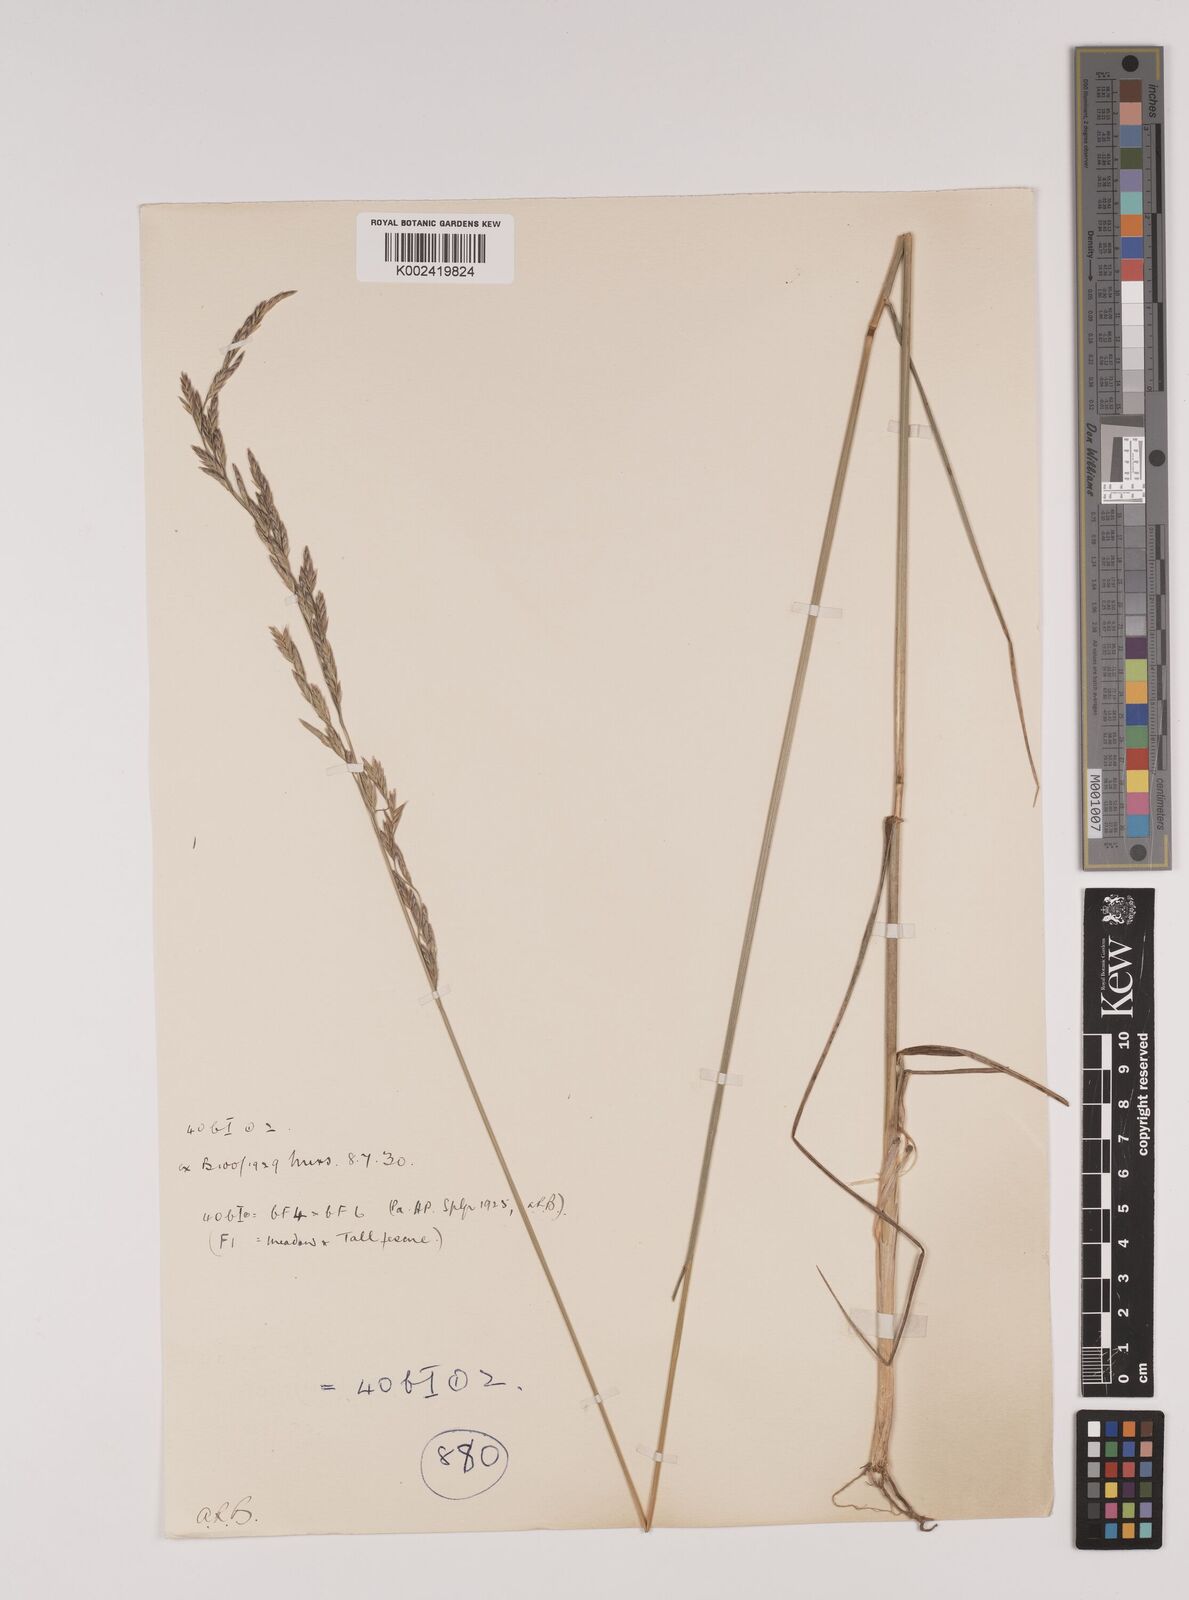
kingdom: Plantae
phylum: Tracheophyta
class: Liliopsida
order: Poales
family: Poaceae
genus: Festuca
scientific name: Festuca rubra
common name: Red fescue
